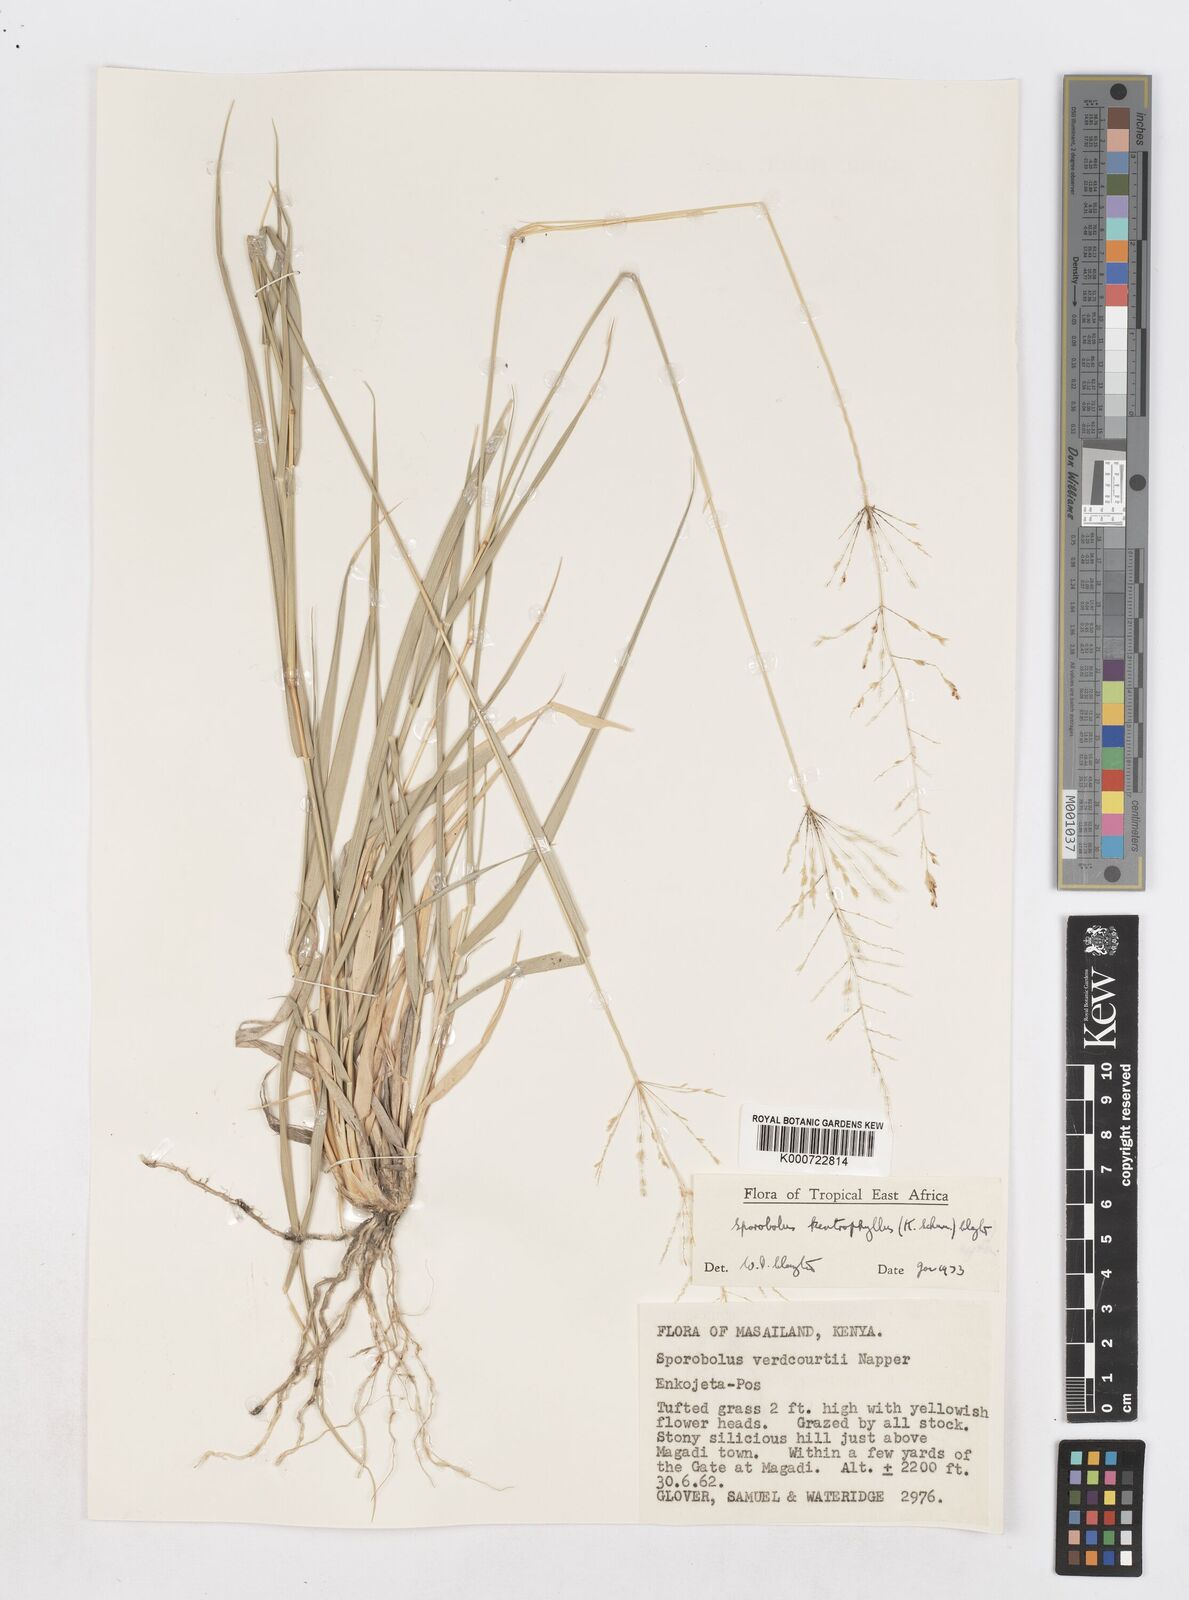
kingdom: Plantae
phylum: Tracheophyta
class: Liliopsida
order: Poales
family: Poaceae
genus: Sporobolus
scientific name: Sporobolus ioclados
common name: Pan dropseed
